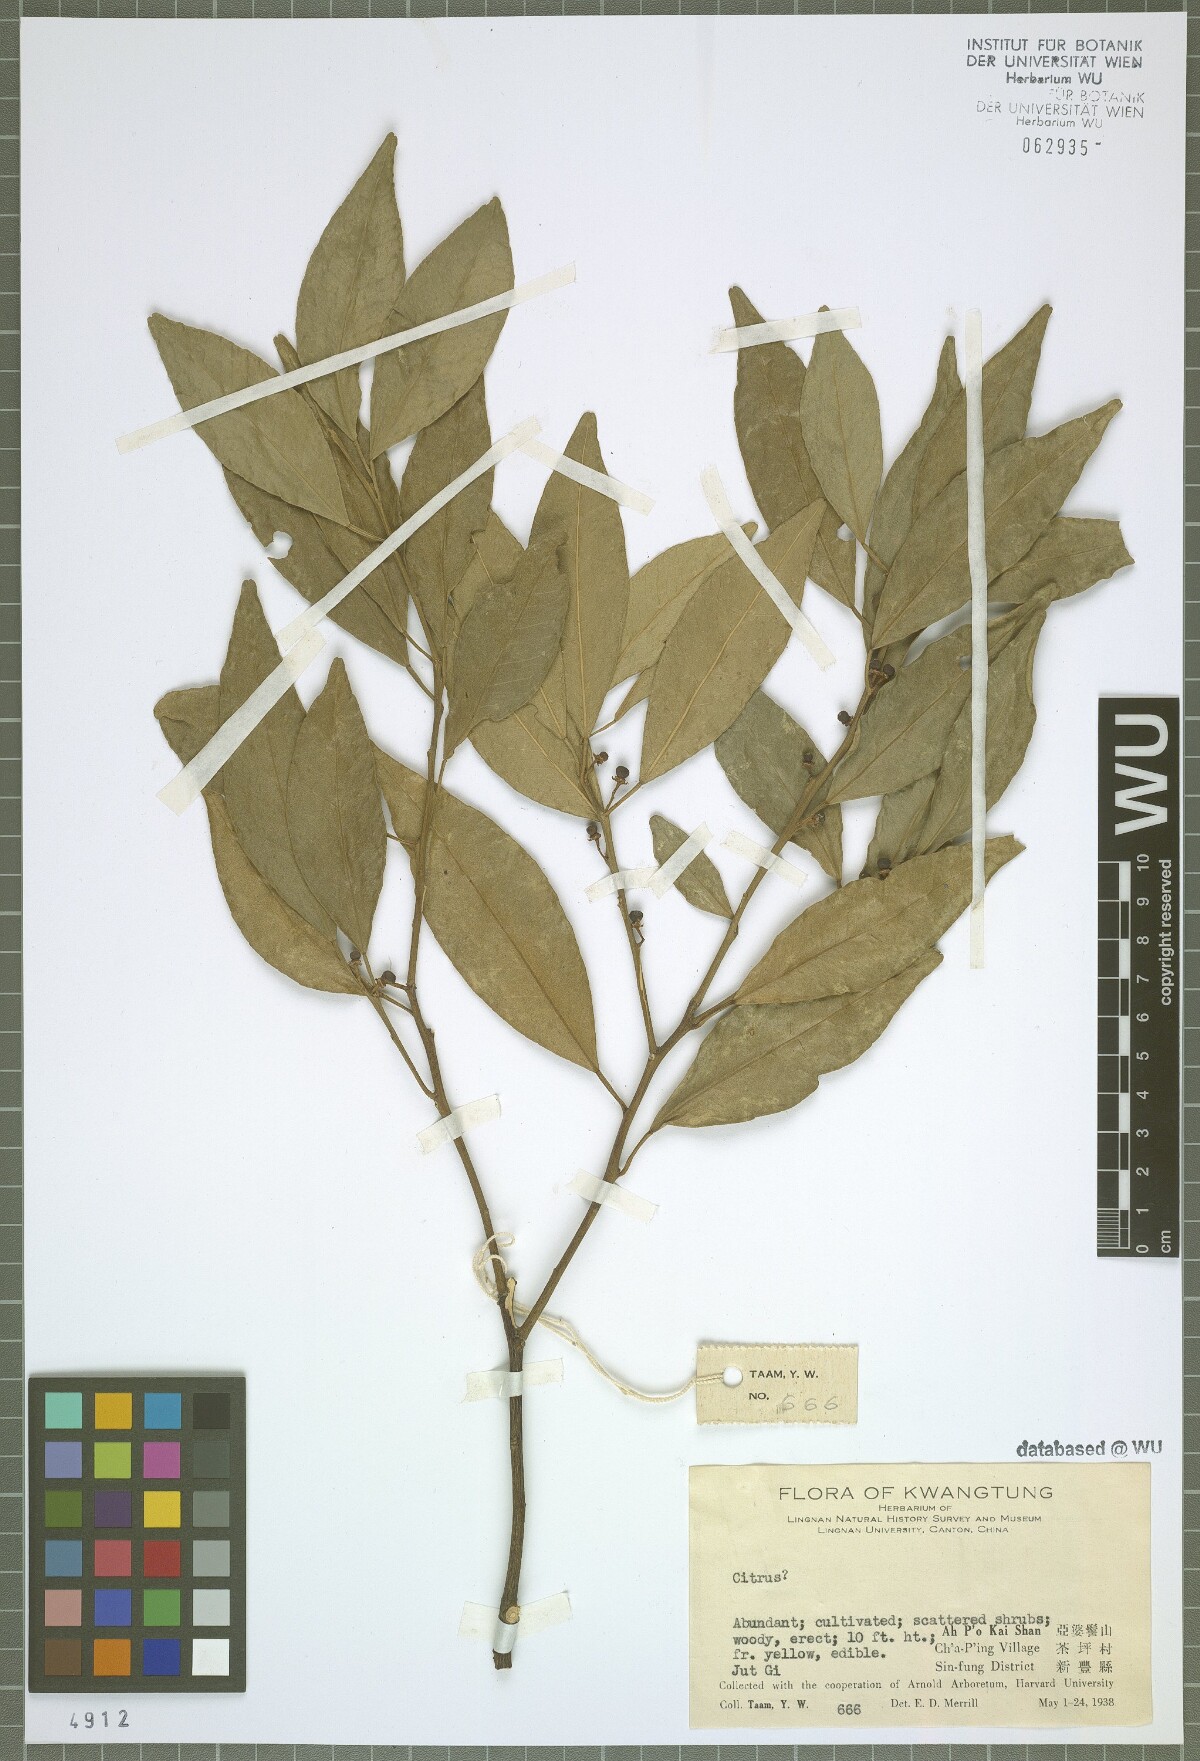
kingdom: Plantae
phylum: Tracheophyta
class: Magnoliopsida
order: Sapindales
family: Rutaceae
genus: Citrus
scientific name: Citrus
